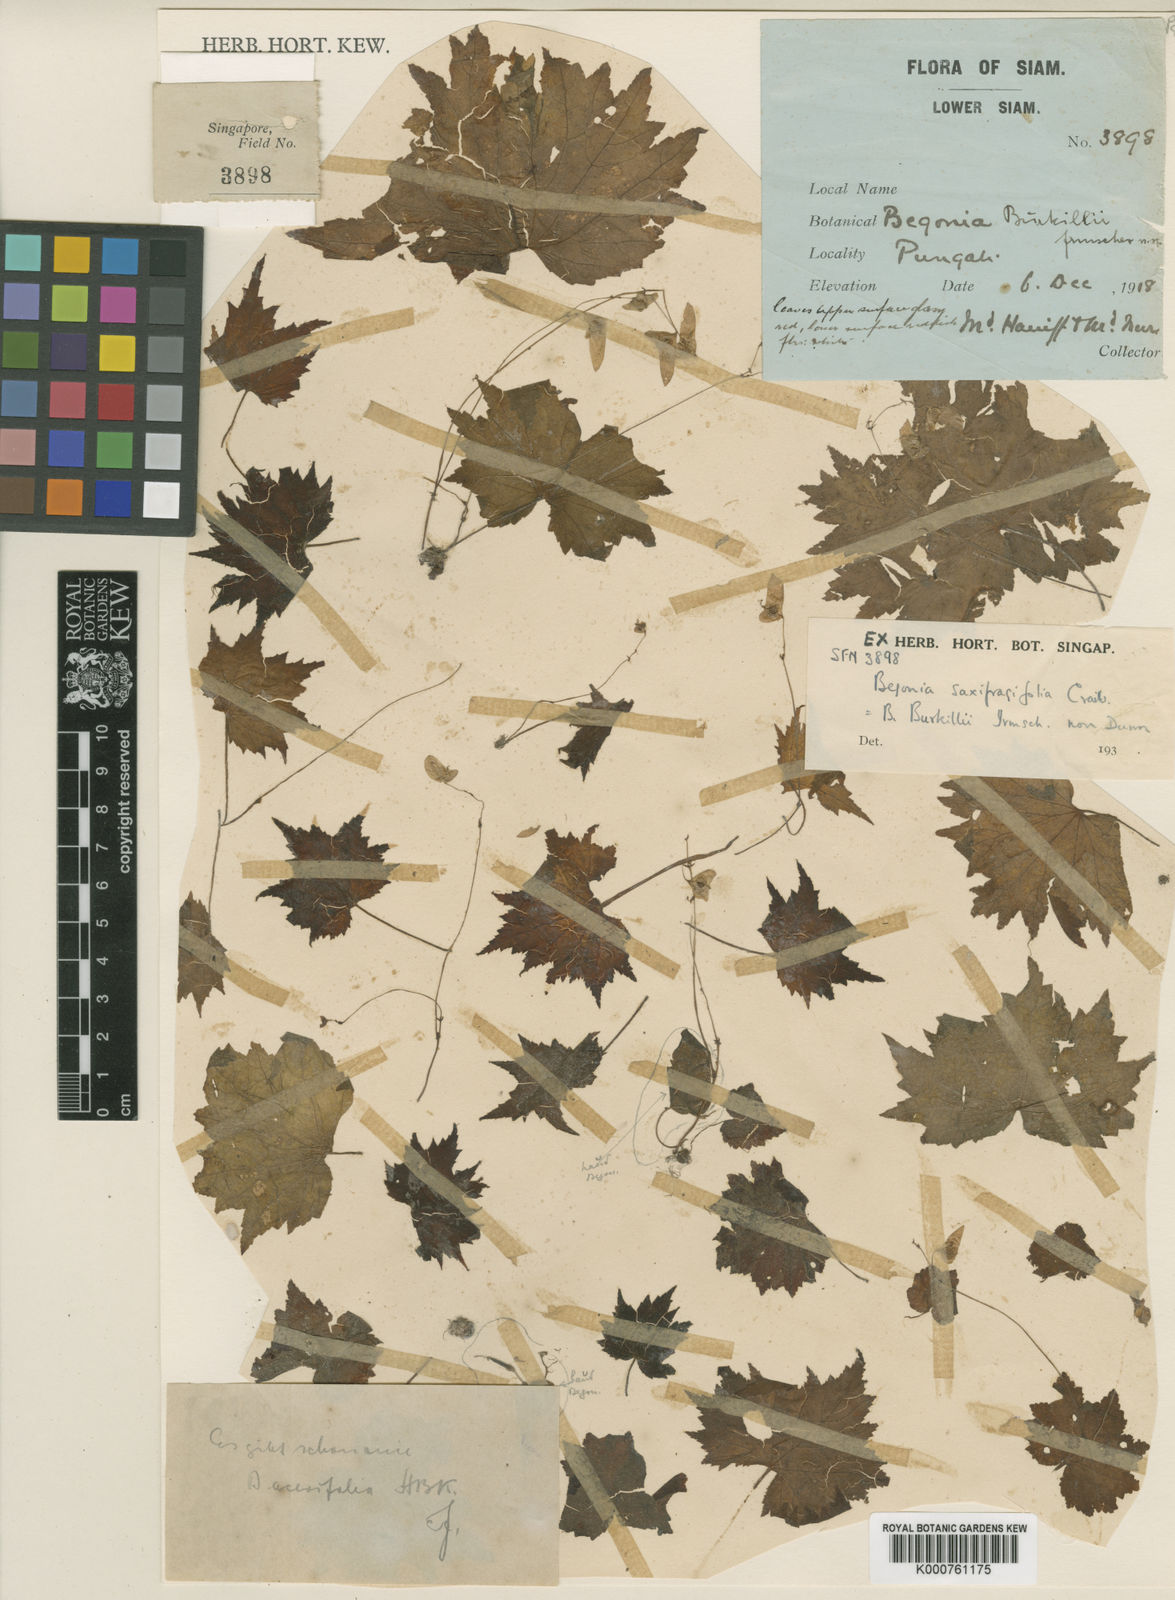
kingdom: Plantae
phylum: Tracheophyta
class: Magnoliopsida
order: Cucurbitales
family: Begoniaceae
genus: Begonia
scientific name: Begonia saxifragifolia
